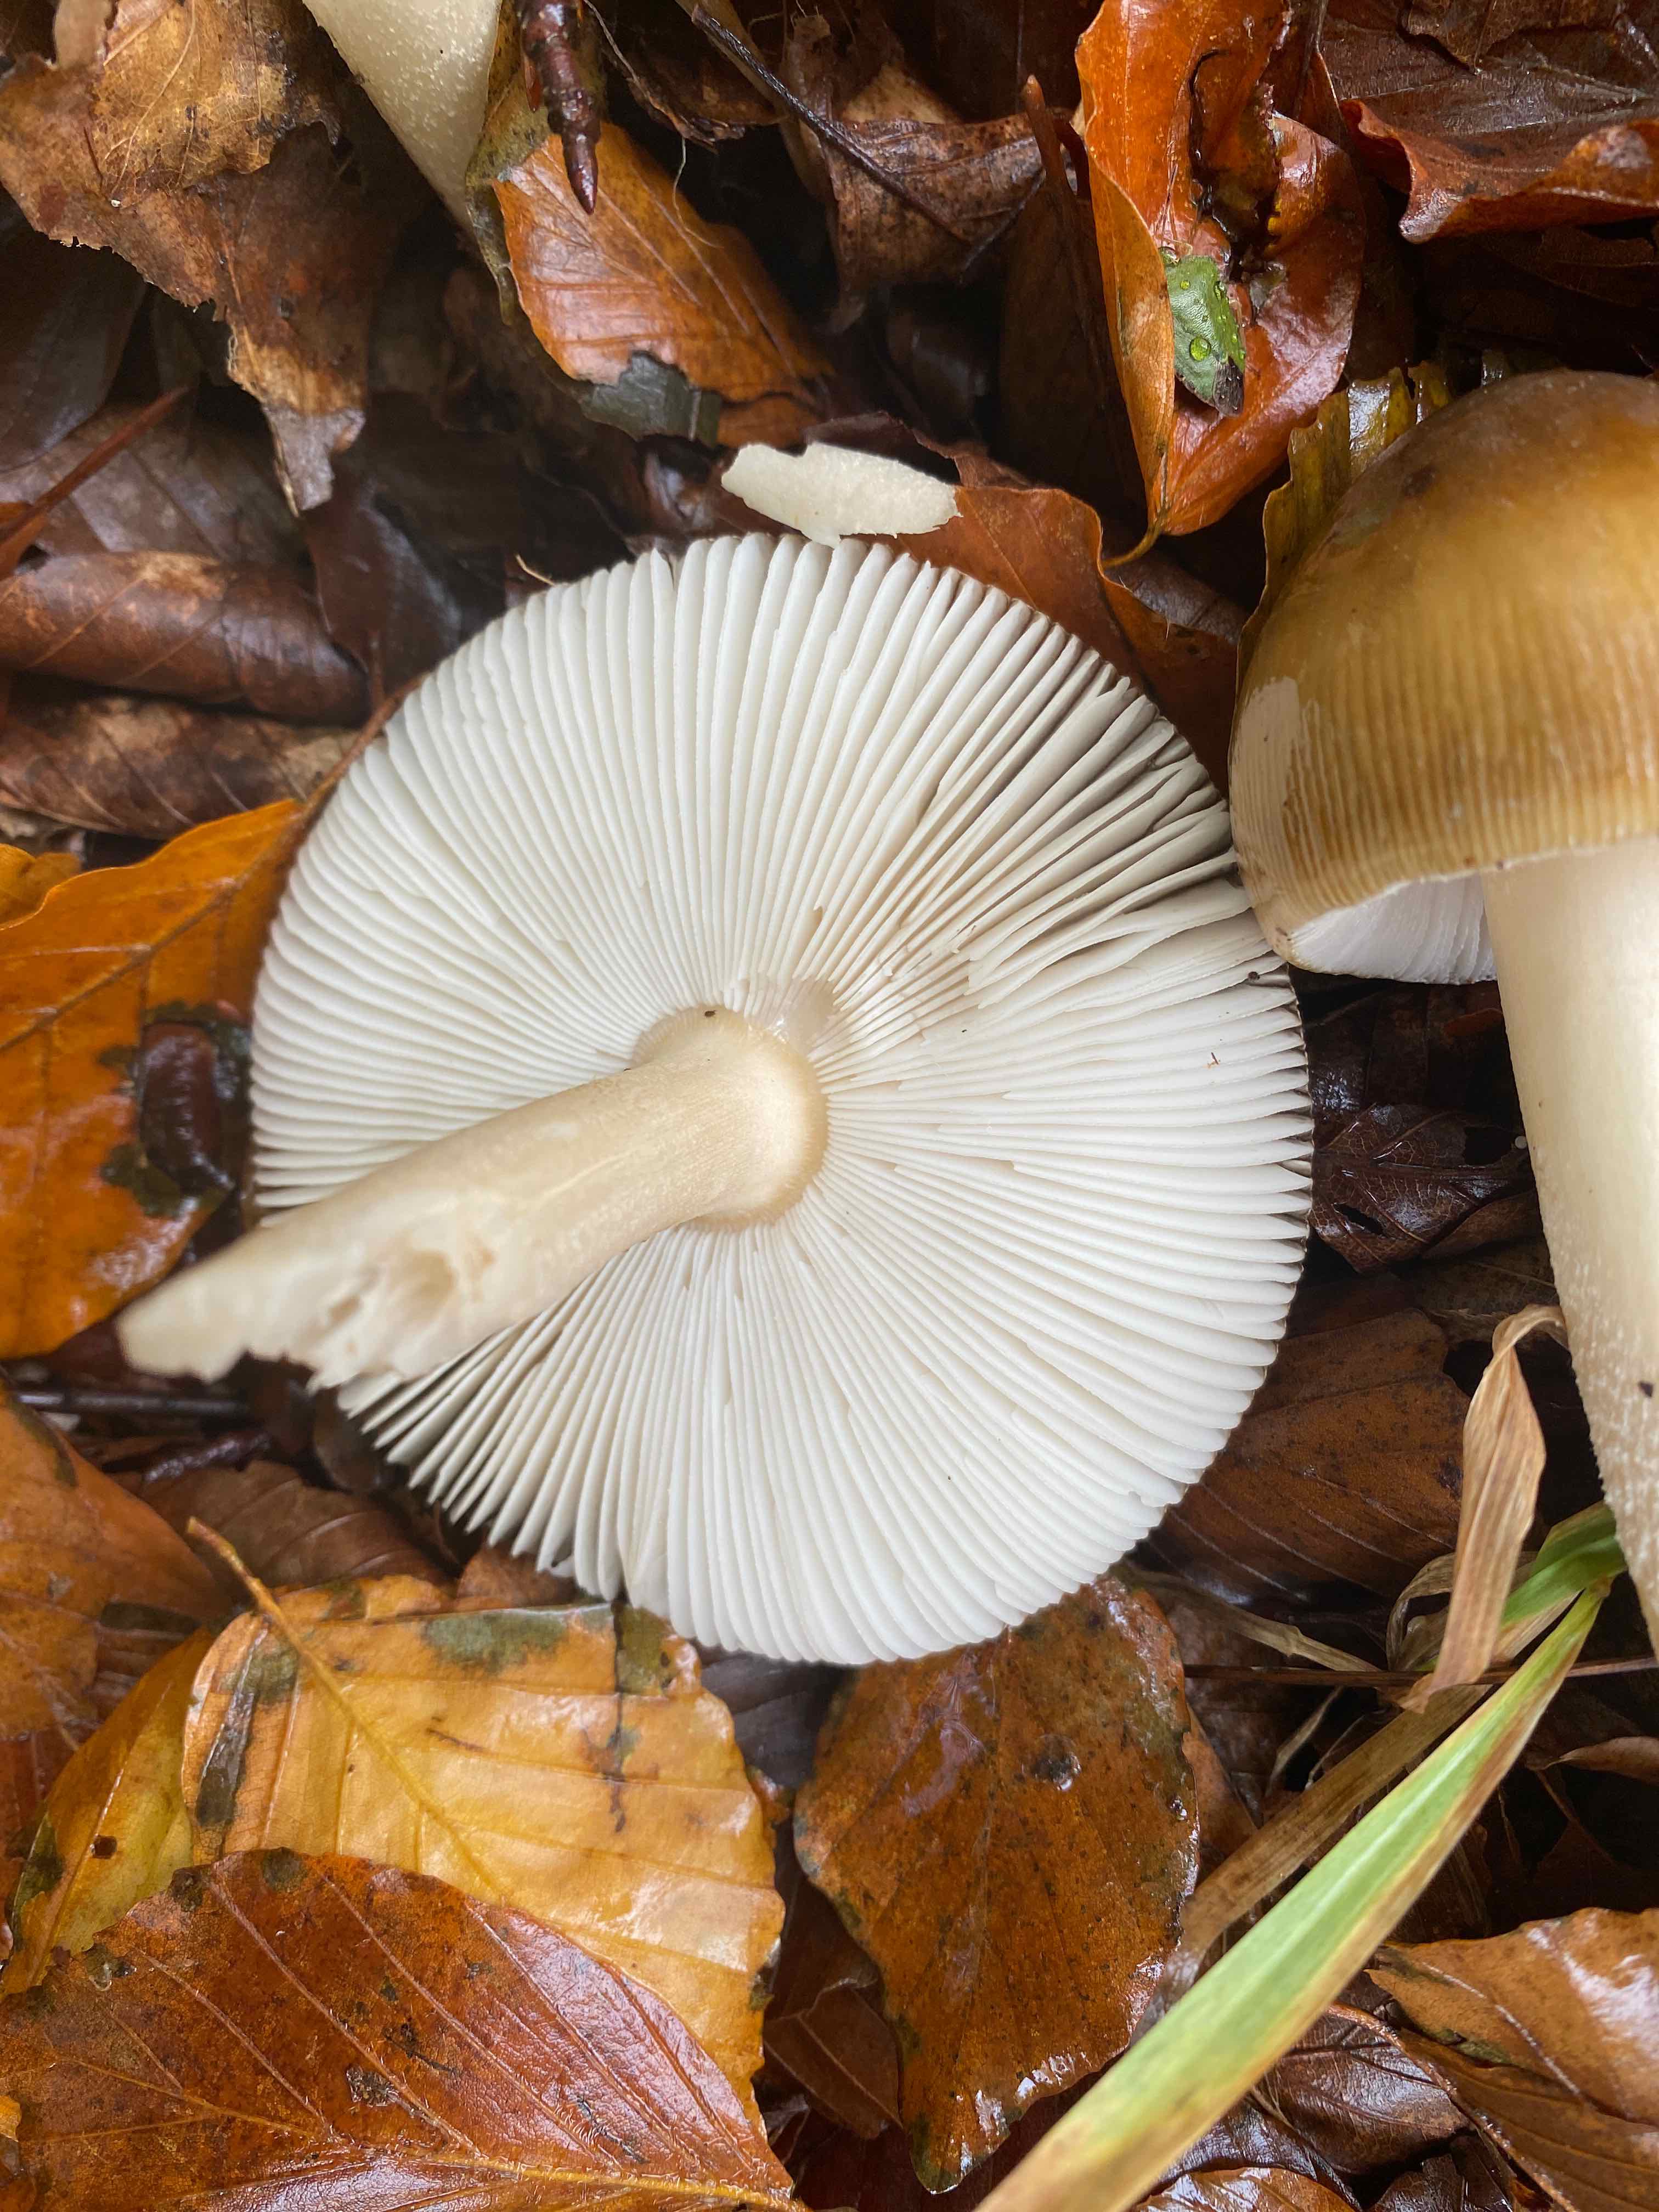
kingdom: Fungi
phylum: Basidiomycota
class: Agaricomycetes
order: Agaricales
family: Amanitaceae
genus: Amanita
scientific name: Amanita fulva
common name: brun kam-fluesvamp
